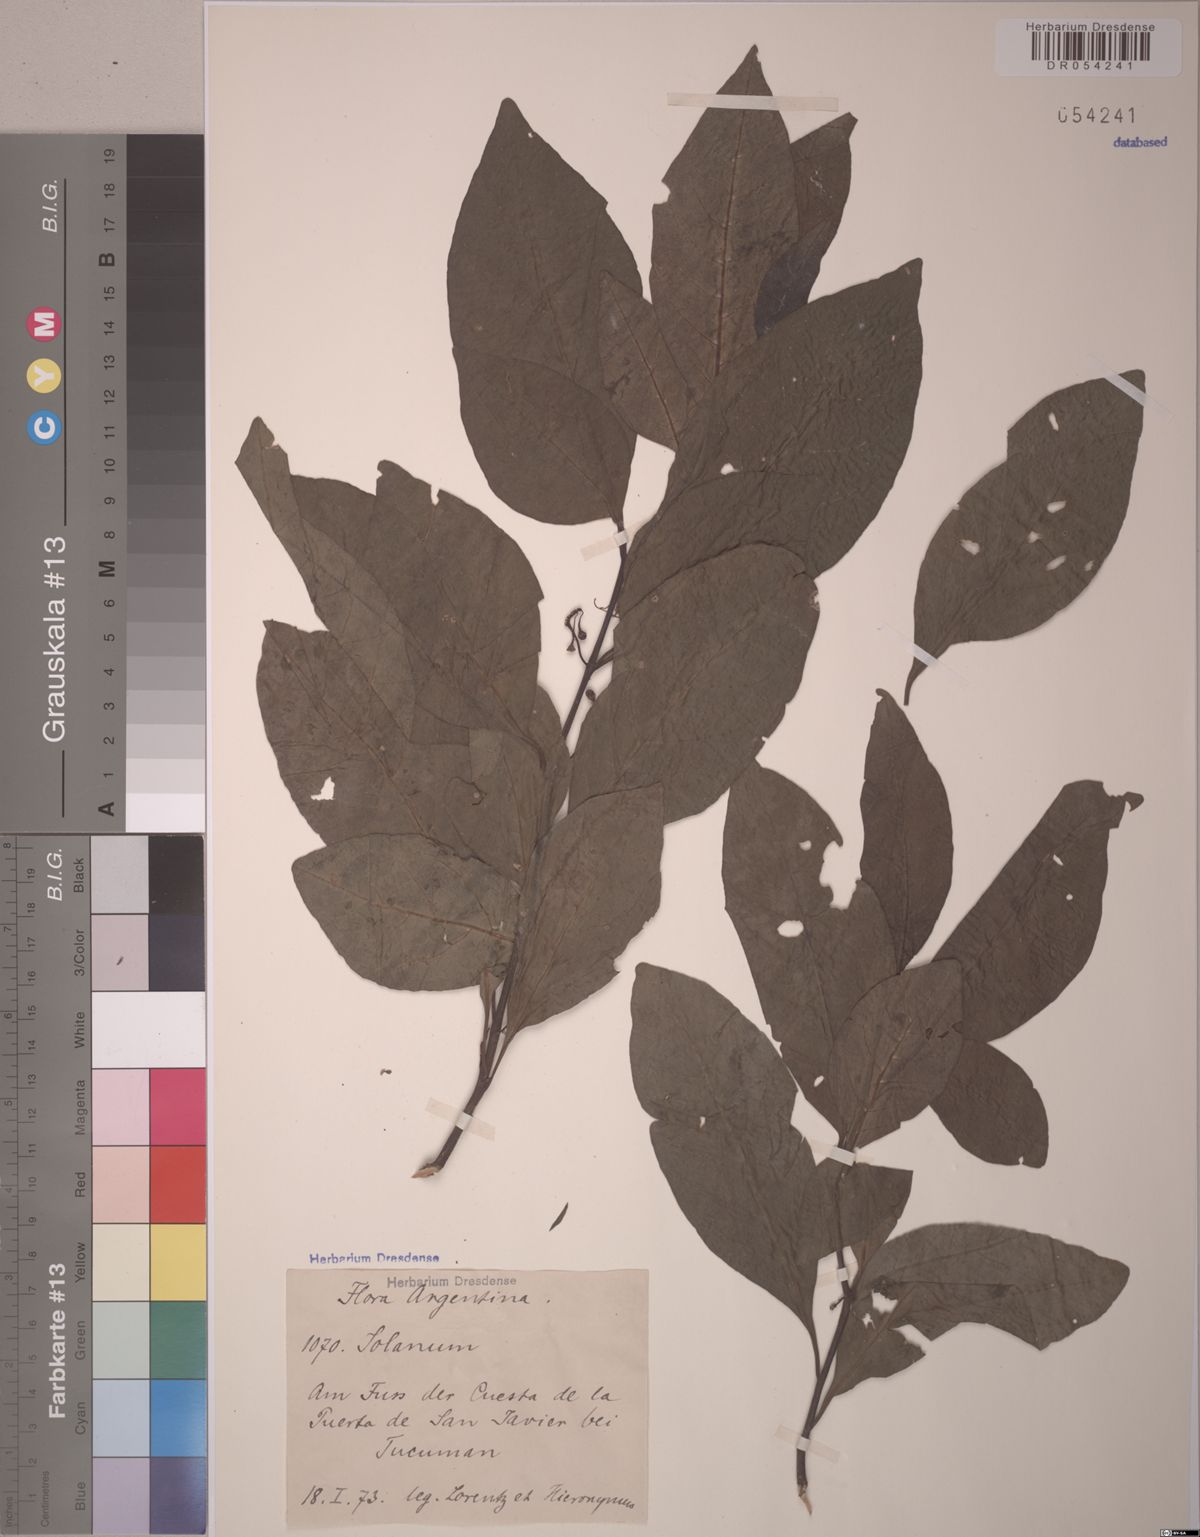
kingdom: Plantae
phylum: Tracheophyta
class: Magnoliopsida
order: Solanales
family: Solanaceae
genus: Solanum
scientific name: Solanum symmetricum
